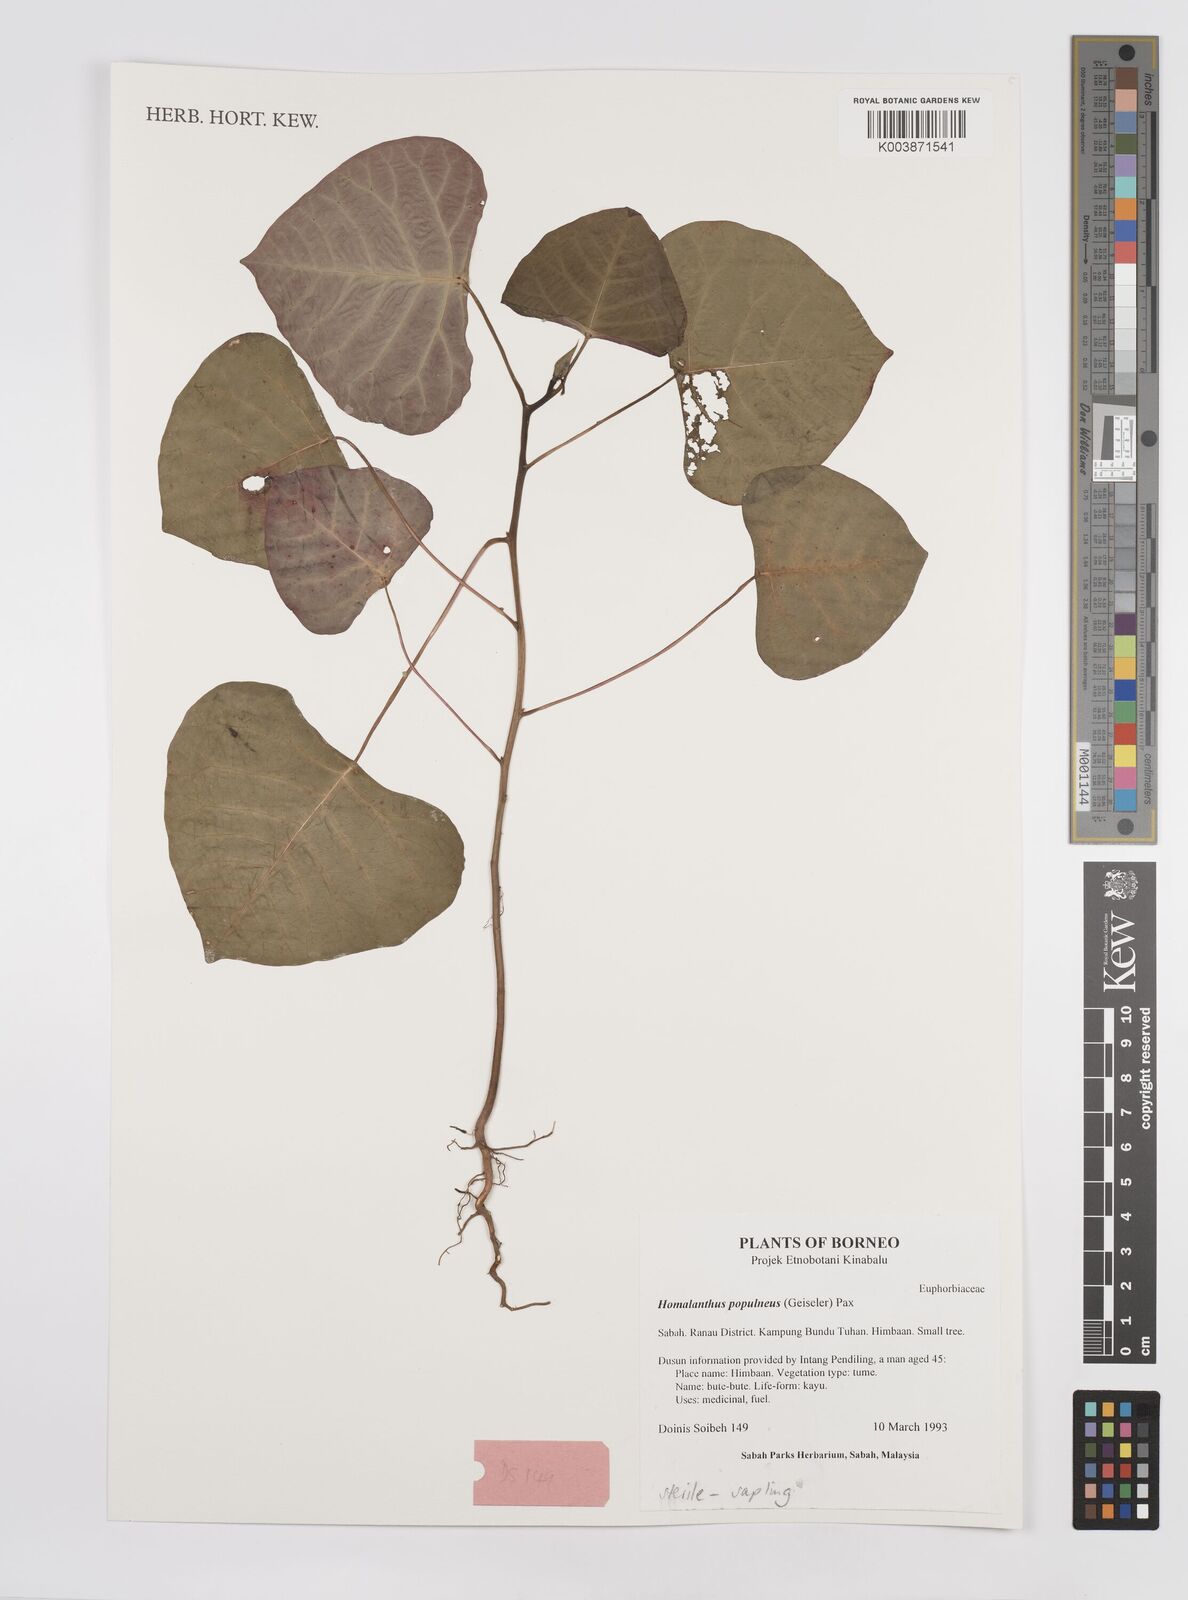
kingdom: Plantae
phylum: Tracheophyta
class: Magnoliopsida
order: Malpighiales
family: Euphorbiaceae
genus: Homalanthus
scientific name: Homalanthus populneus
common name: Spurge
